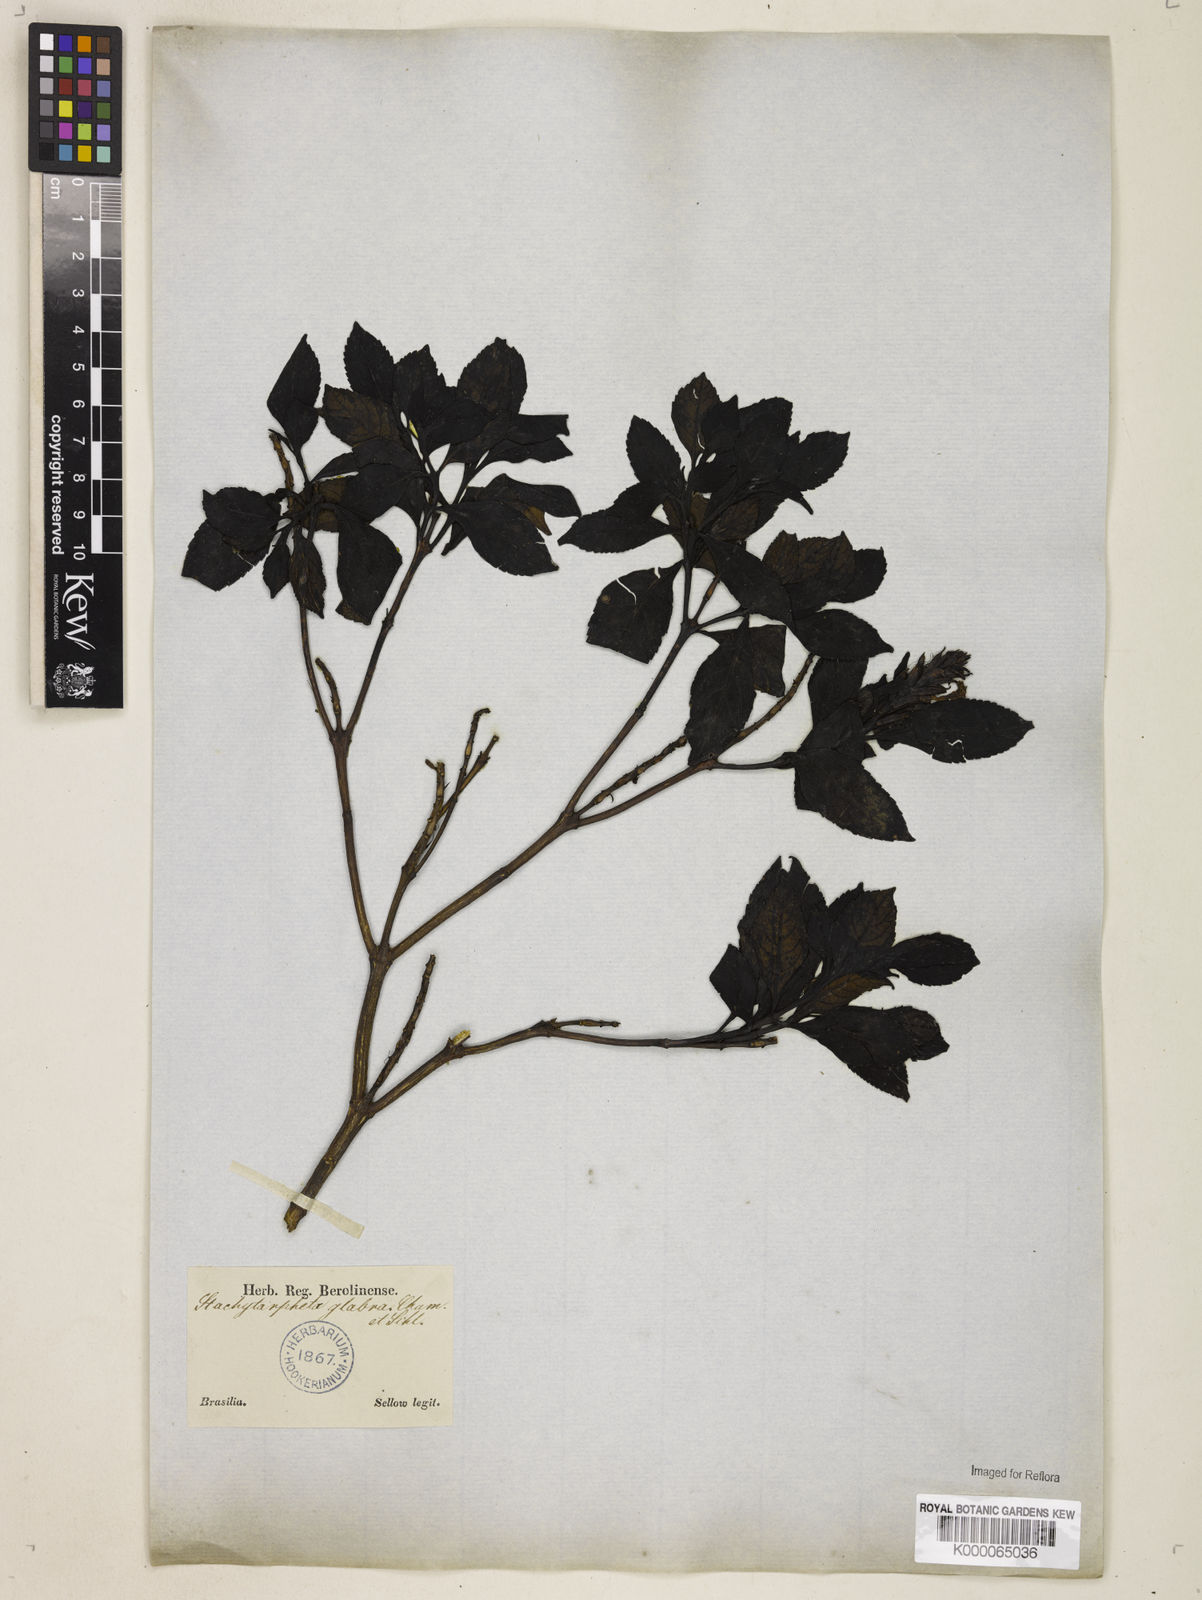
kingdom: Plantae
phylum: Tracheophyta
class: Magnoliopsida
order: Lamiales
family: Verbenaceae
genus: Stachytarpheta
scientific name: Stachytarpheta glabra
